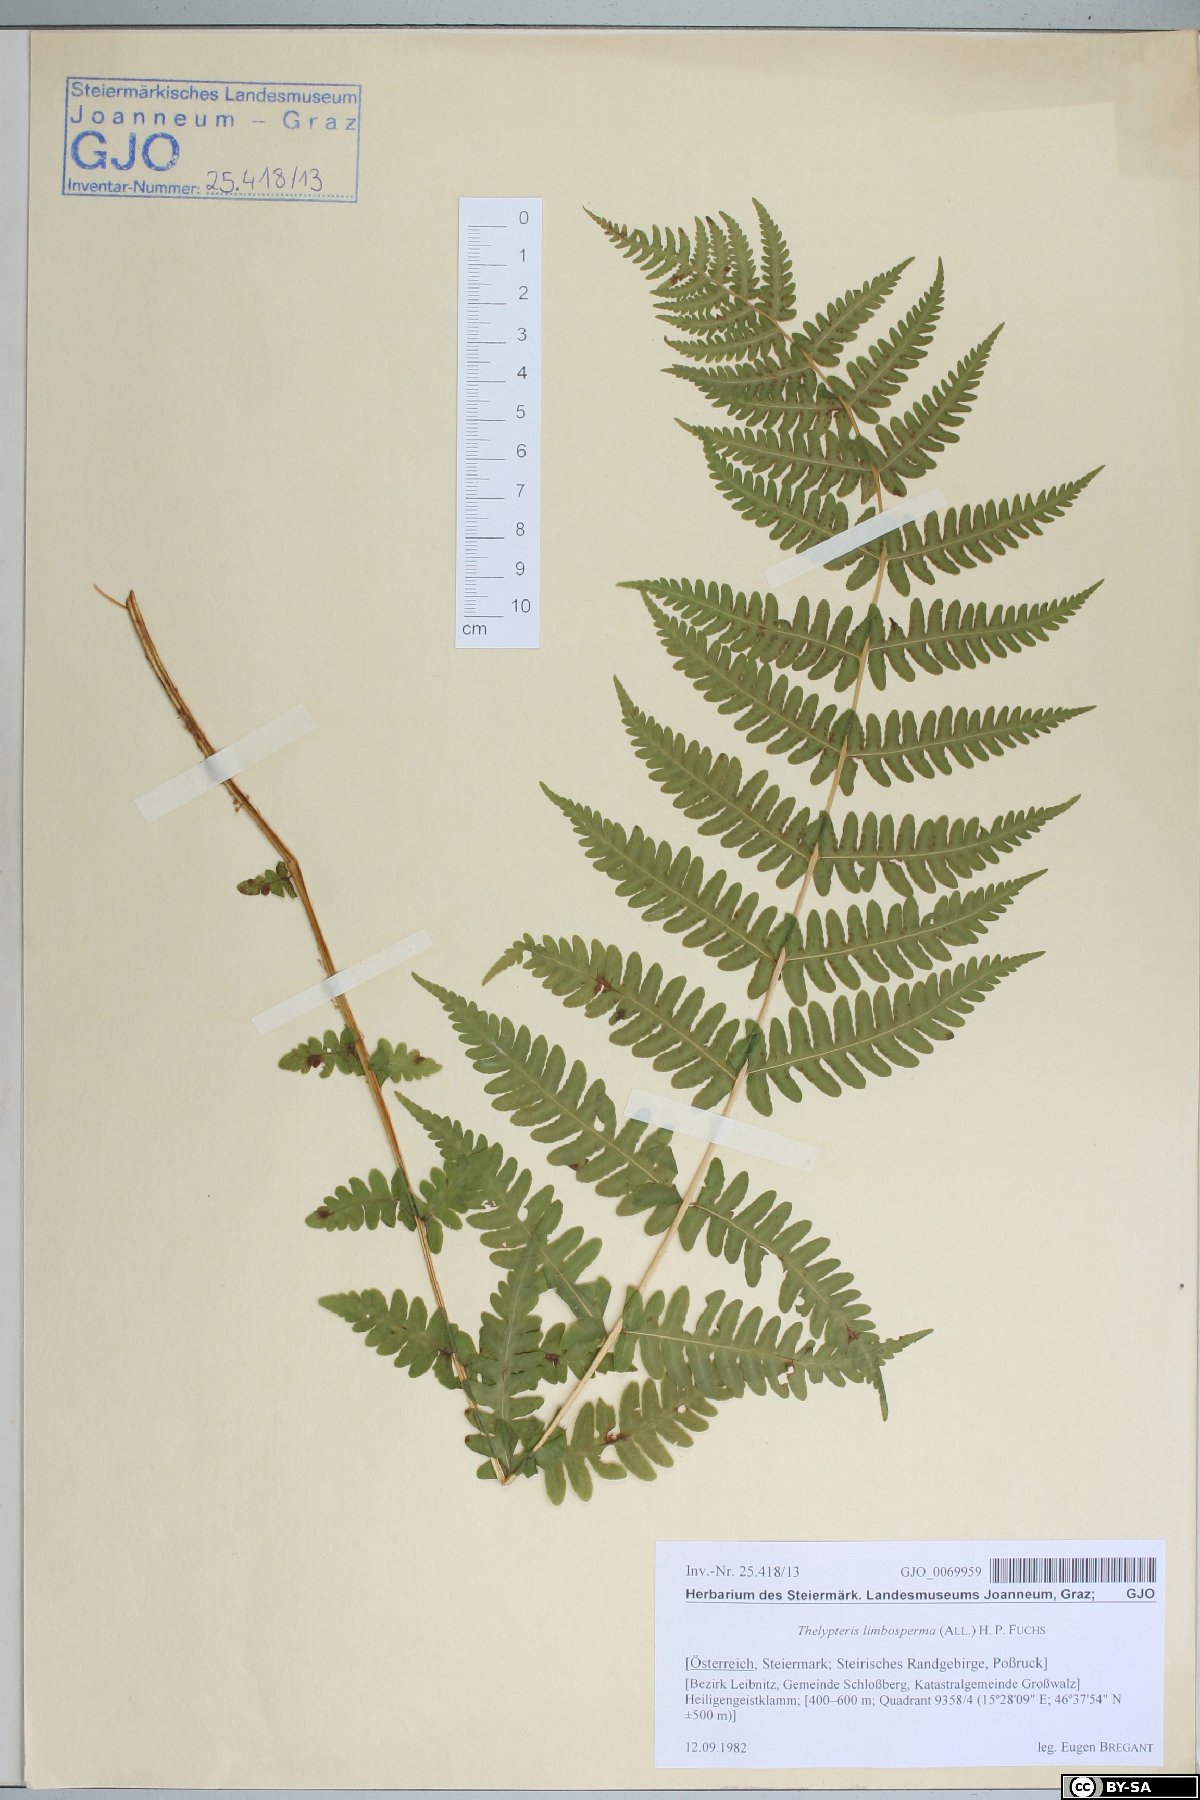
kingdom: Plantae
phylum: Tracheophyta
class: Polypodiopsida
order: Polypodiales
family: Thelypteridaceae
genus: Oreopteris
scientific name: Oreopteris limbosperma
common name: Lemon-scented fern
